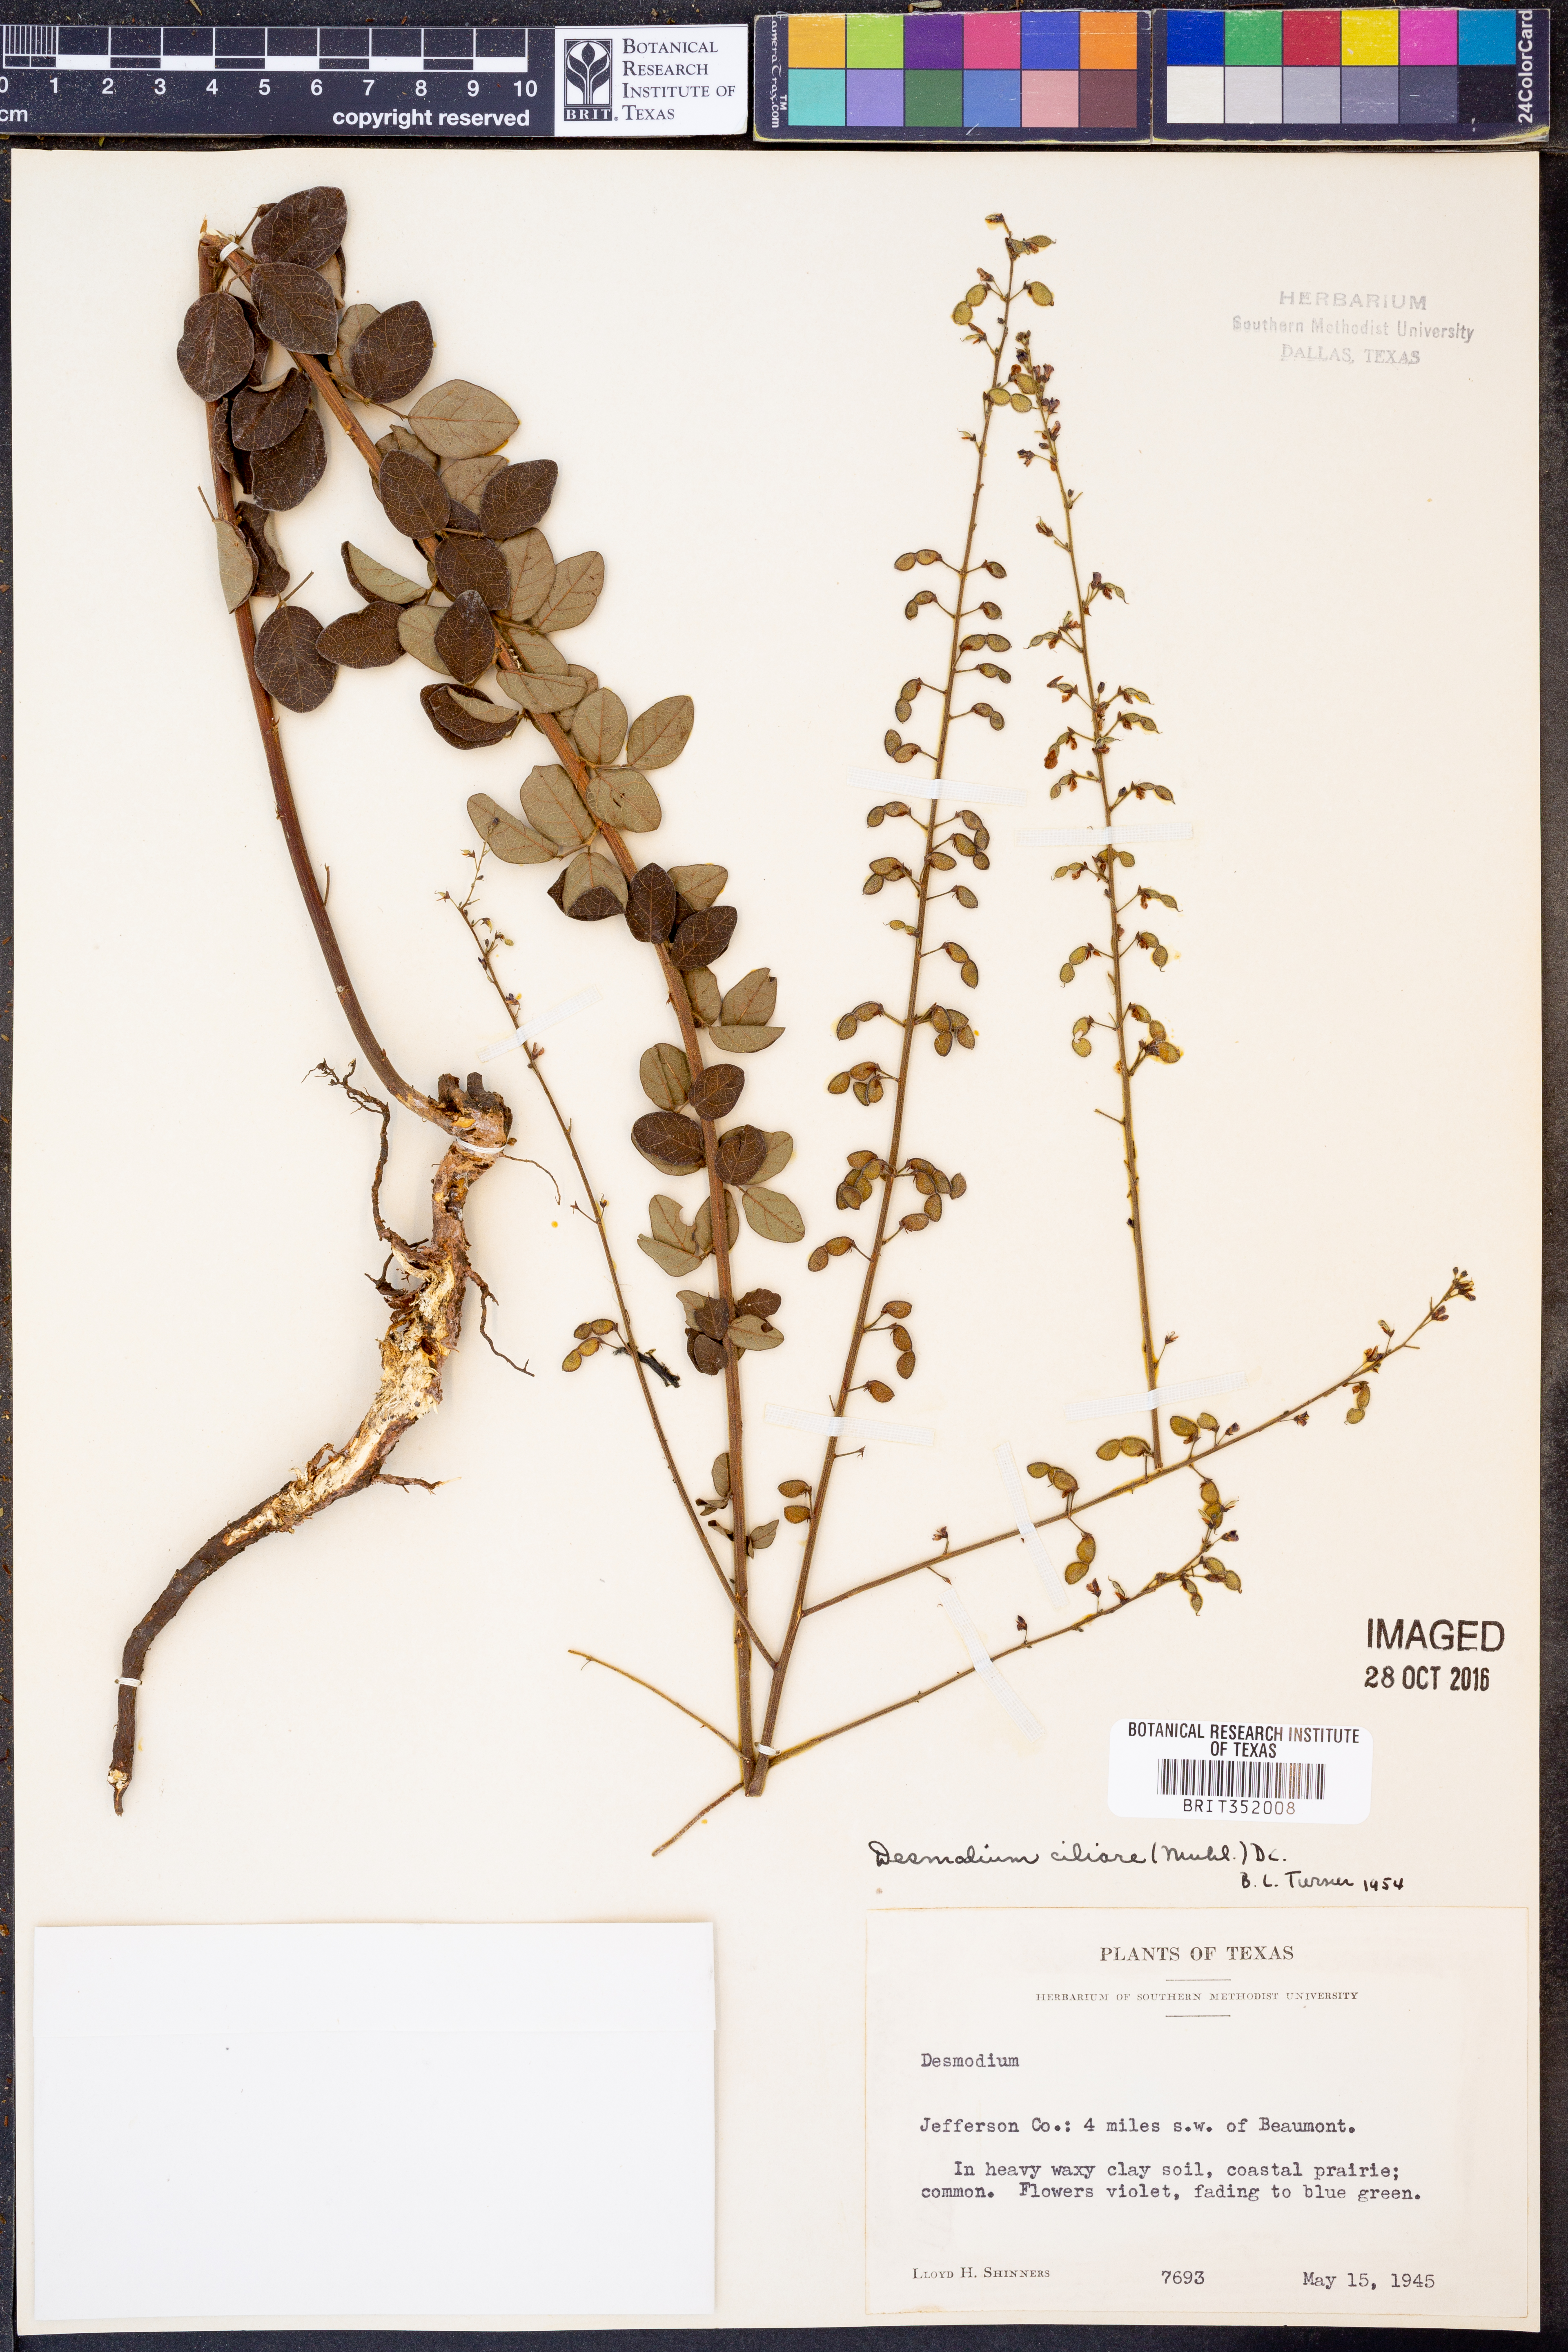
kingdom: Plantae
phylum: Tracheophyta
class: Magnoliopsida
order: Fabales
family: Fabaceae
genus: Desmodium
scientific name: Desmodium ciliare
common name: Hairy small-leaf ticktrefoil
